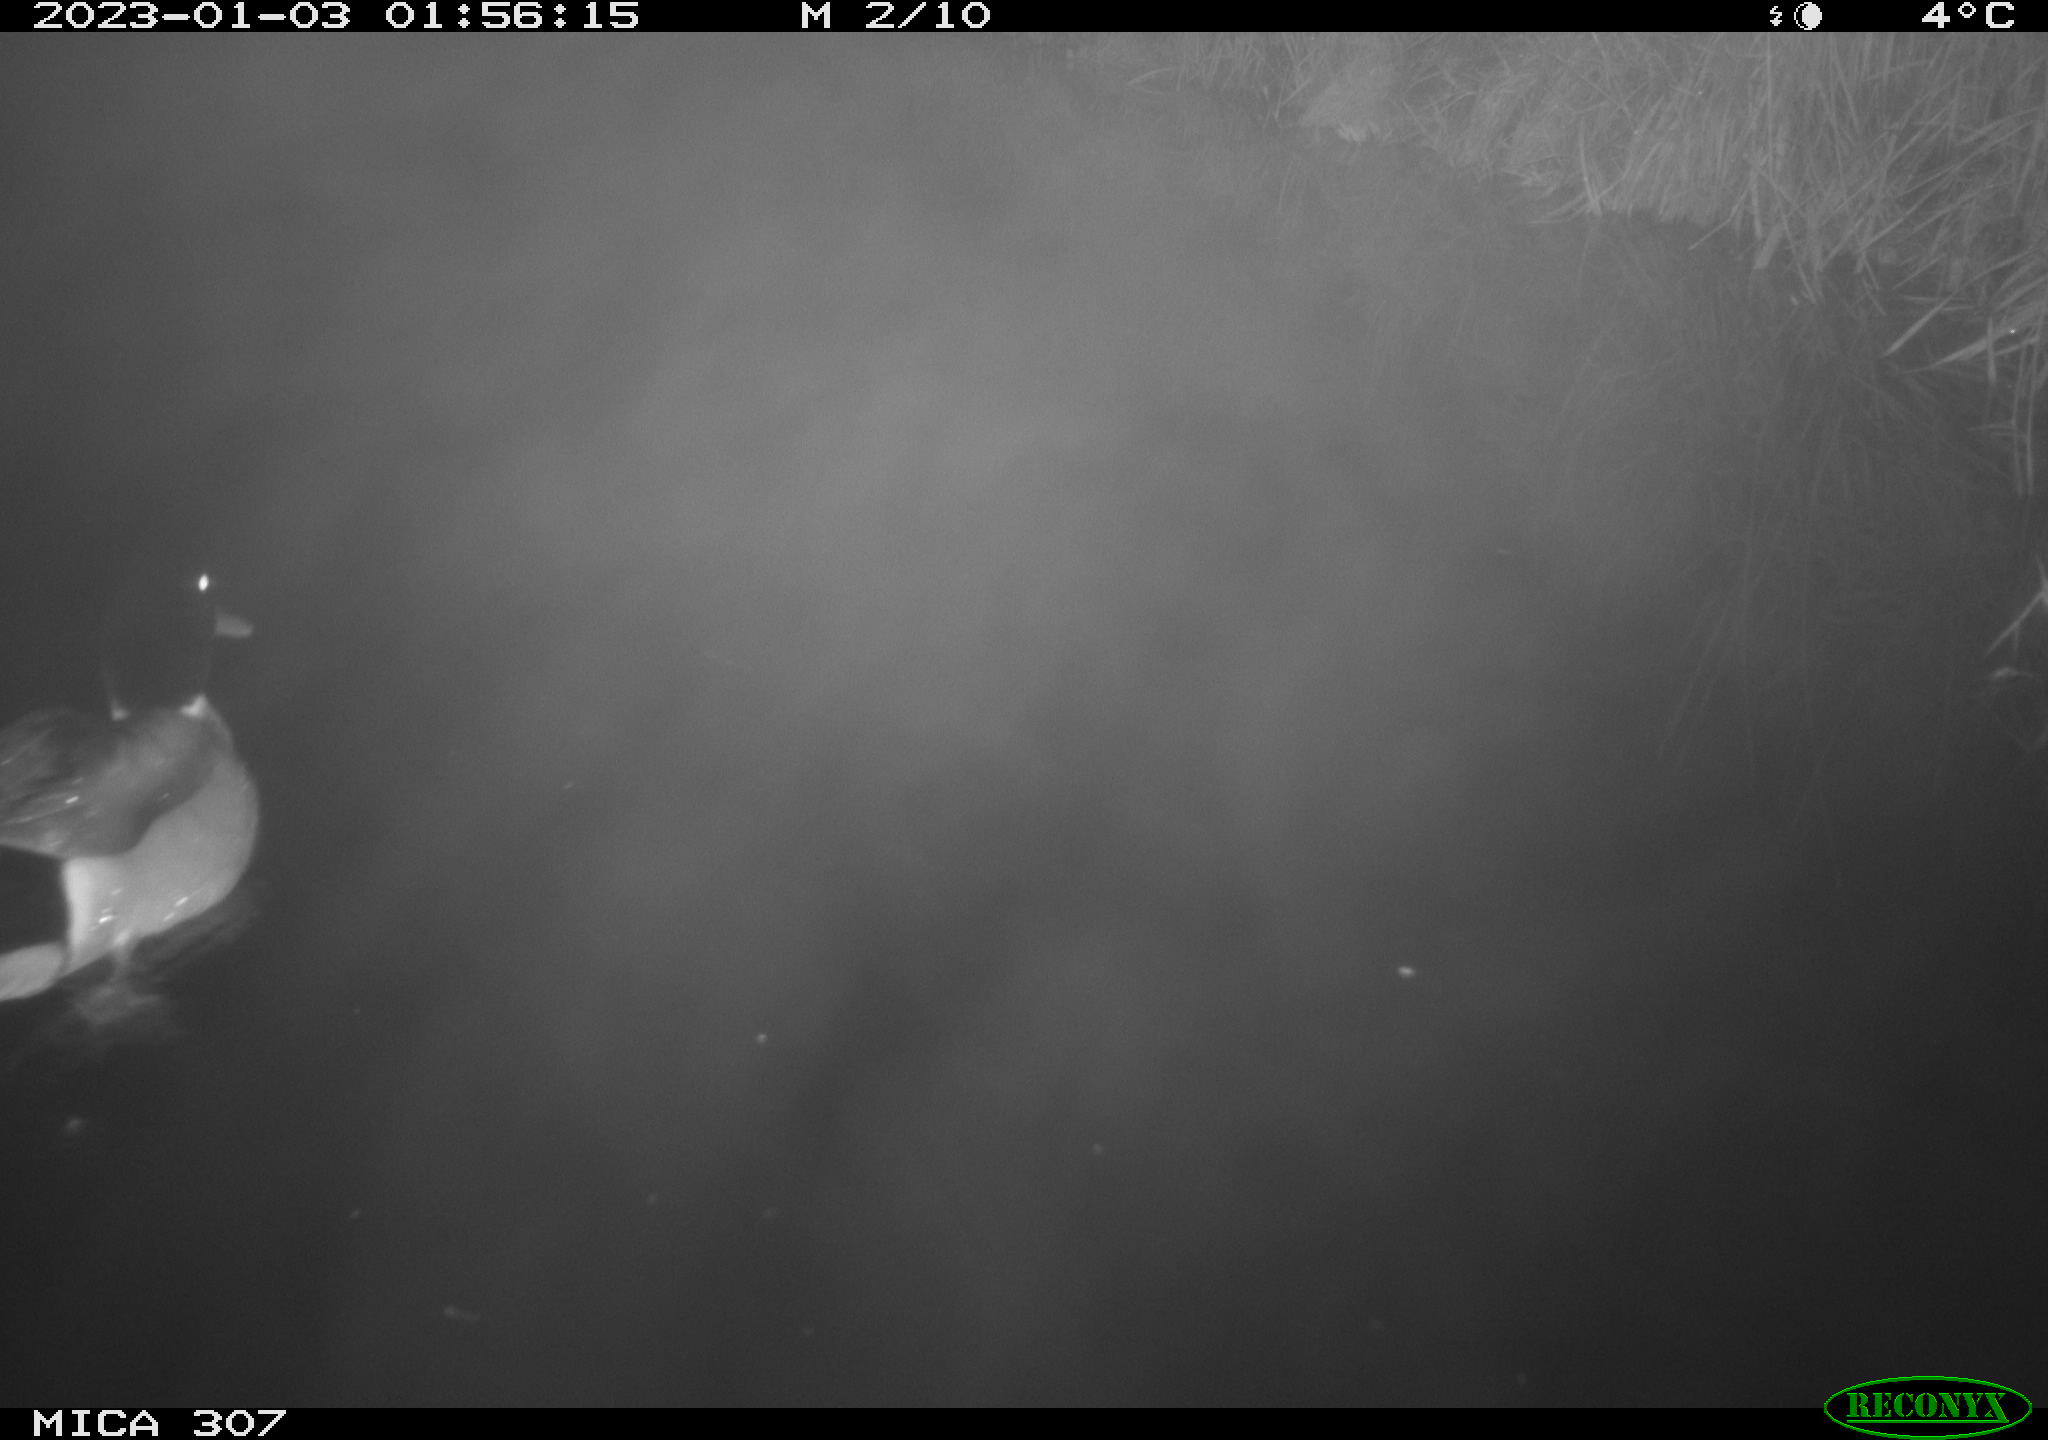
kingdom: Animalia
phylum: Chordata
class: Mammalia
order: Rodentia
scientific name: Rodentia
